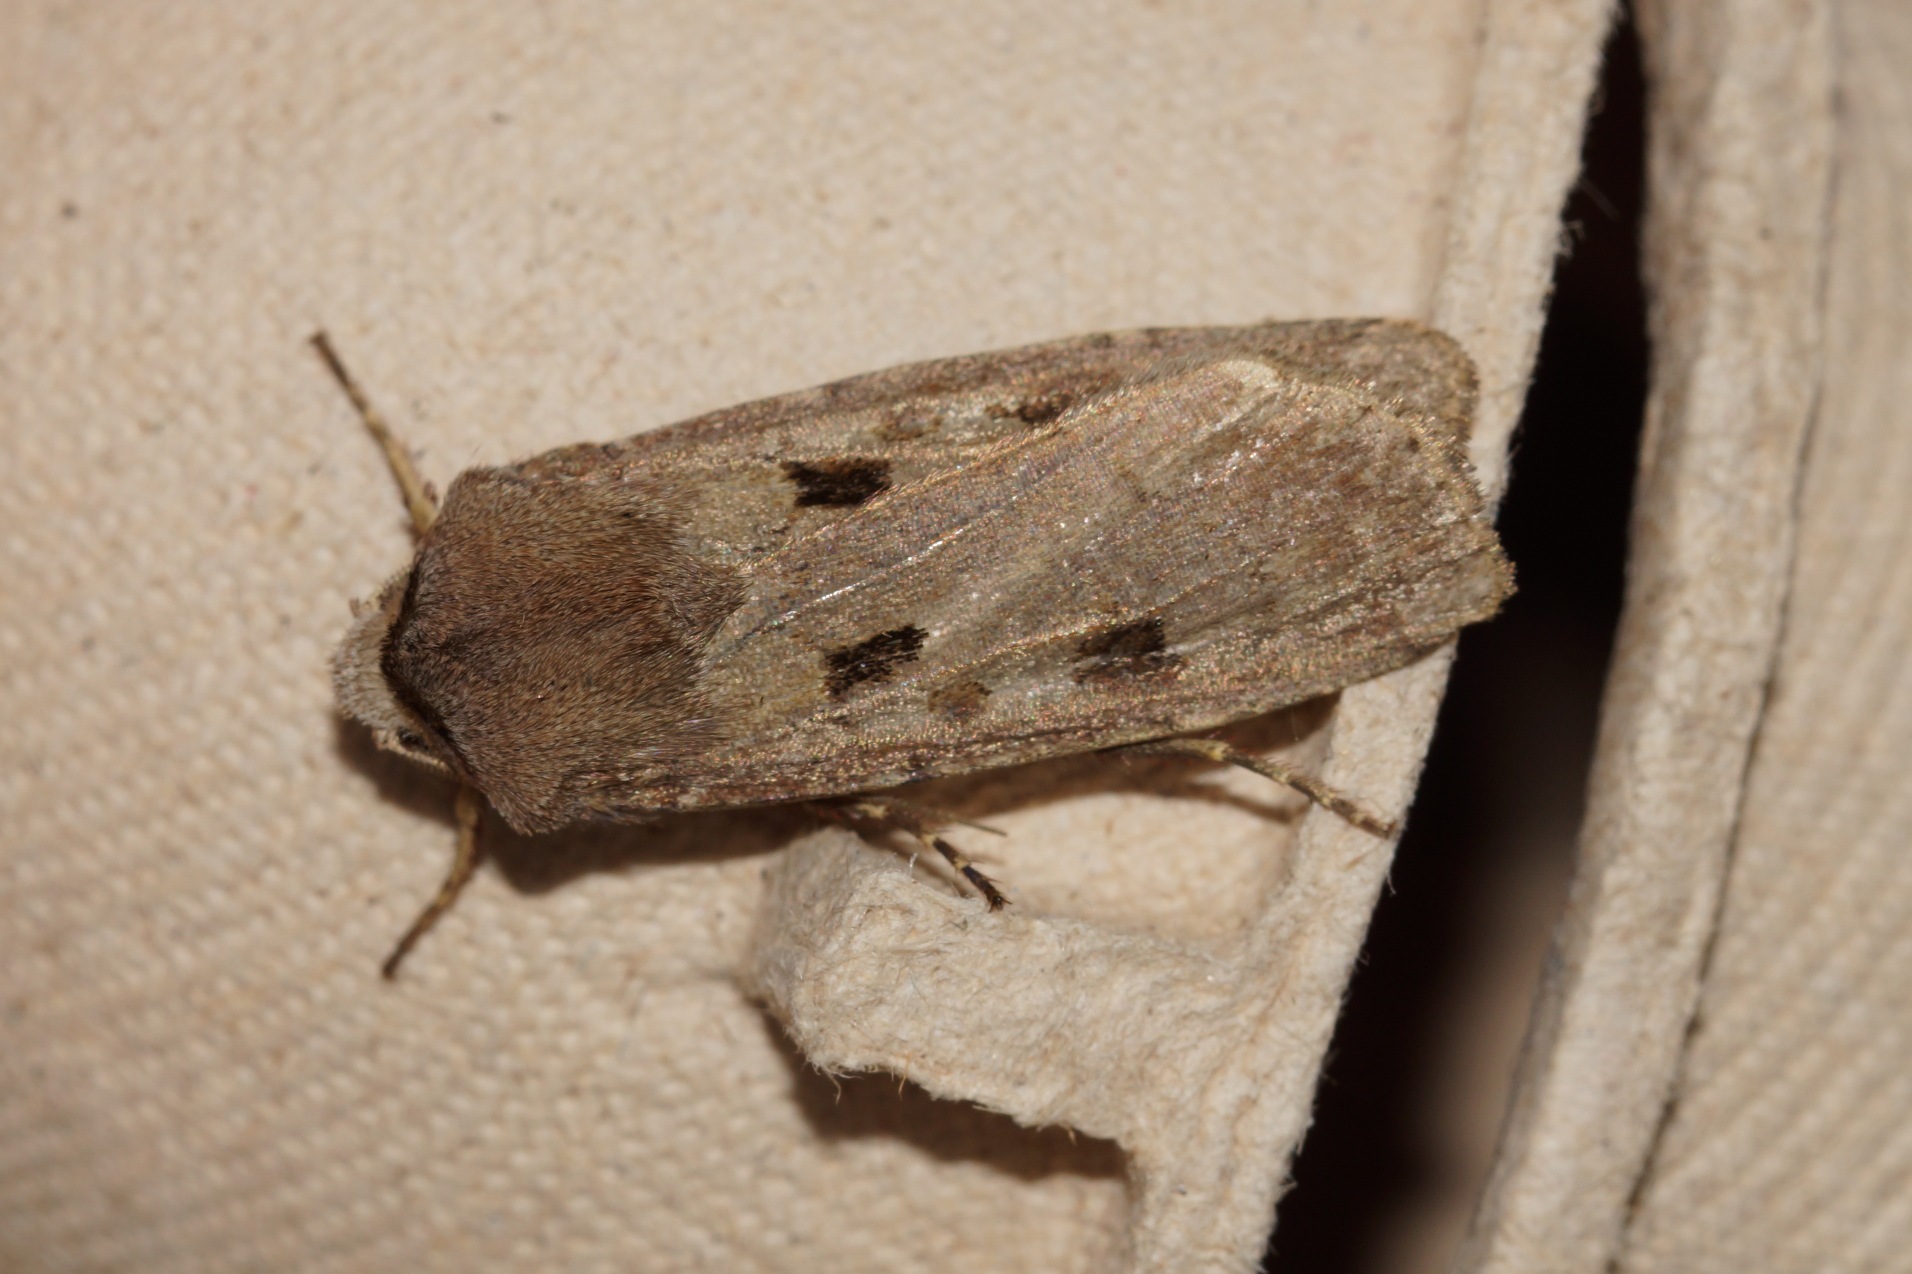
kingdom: Animalia
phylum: Arthropoda
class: Insecta
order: Lepidoptera
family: Noctuidae
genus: Agrotis
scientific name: Agrotis exclamationis
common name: Udråbstegnsugle
